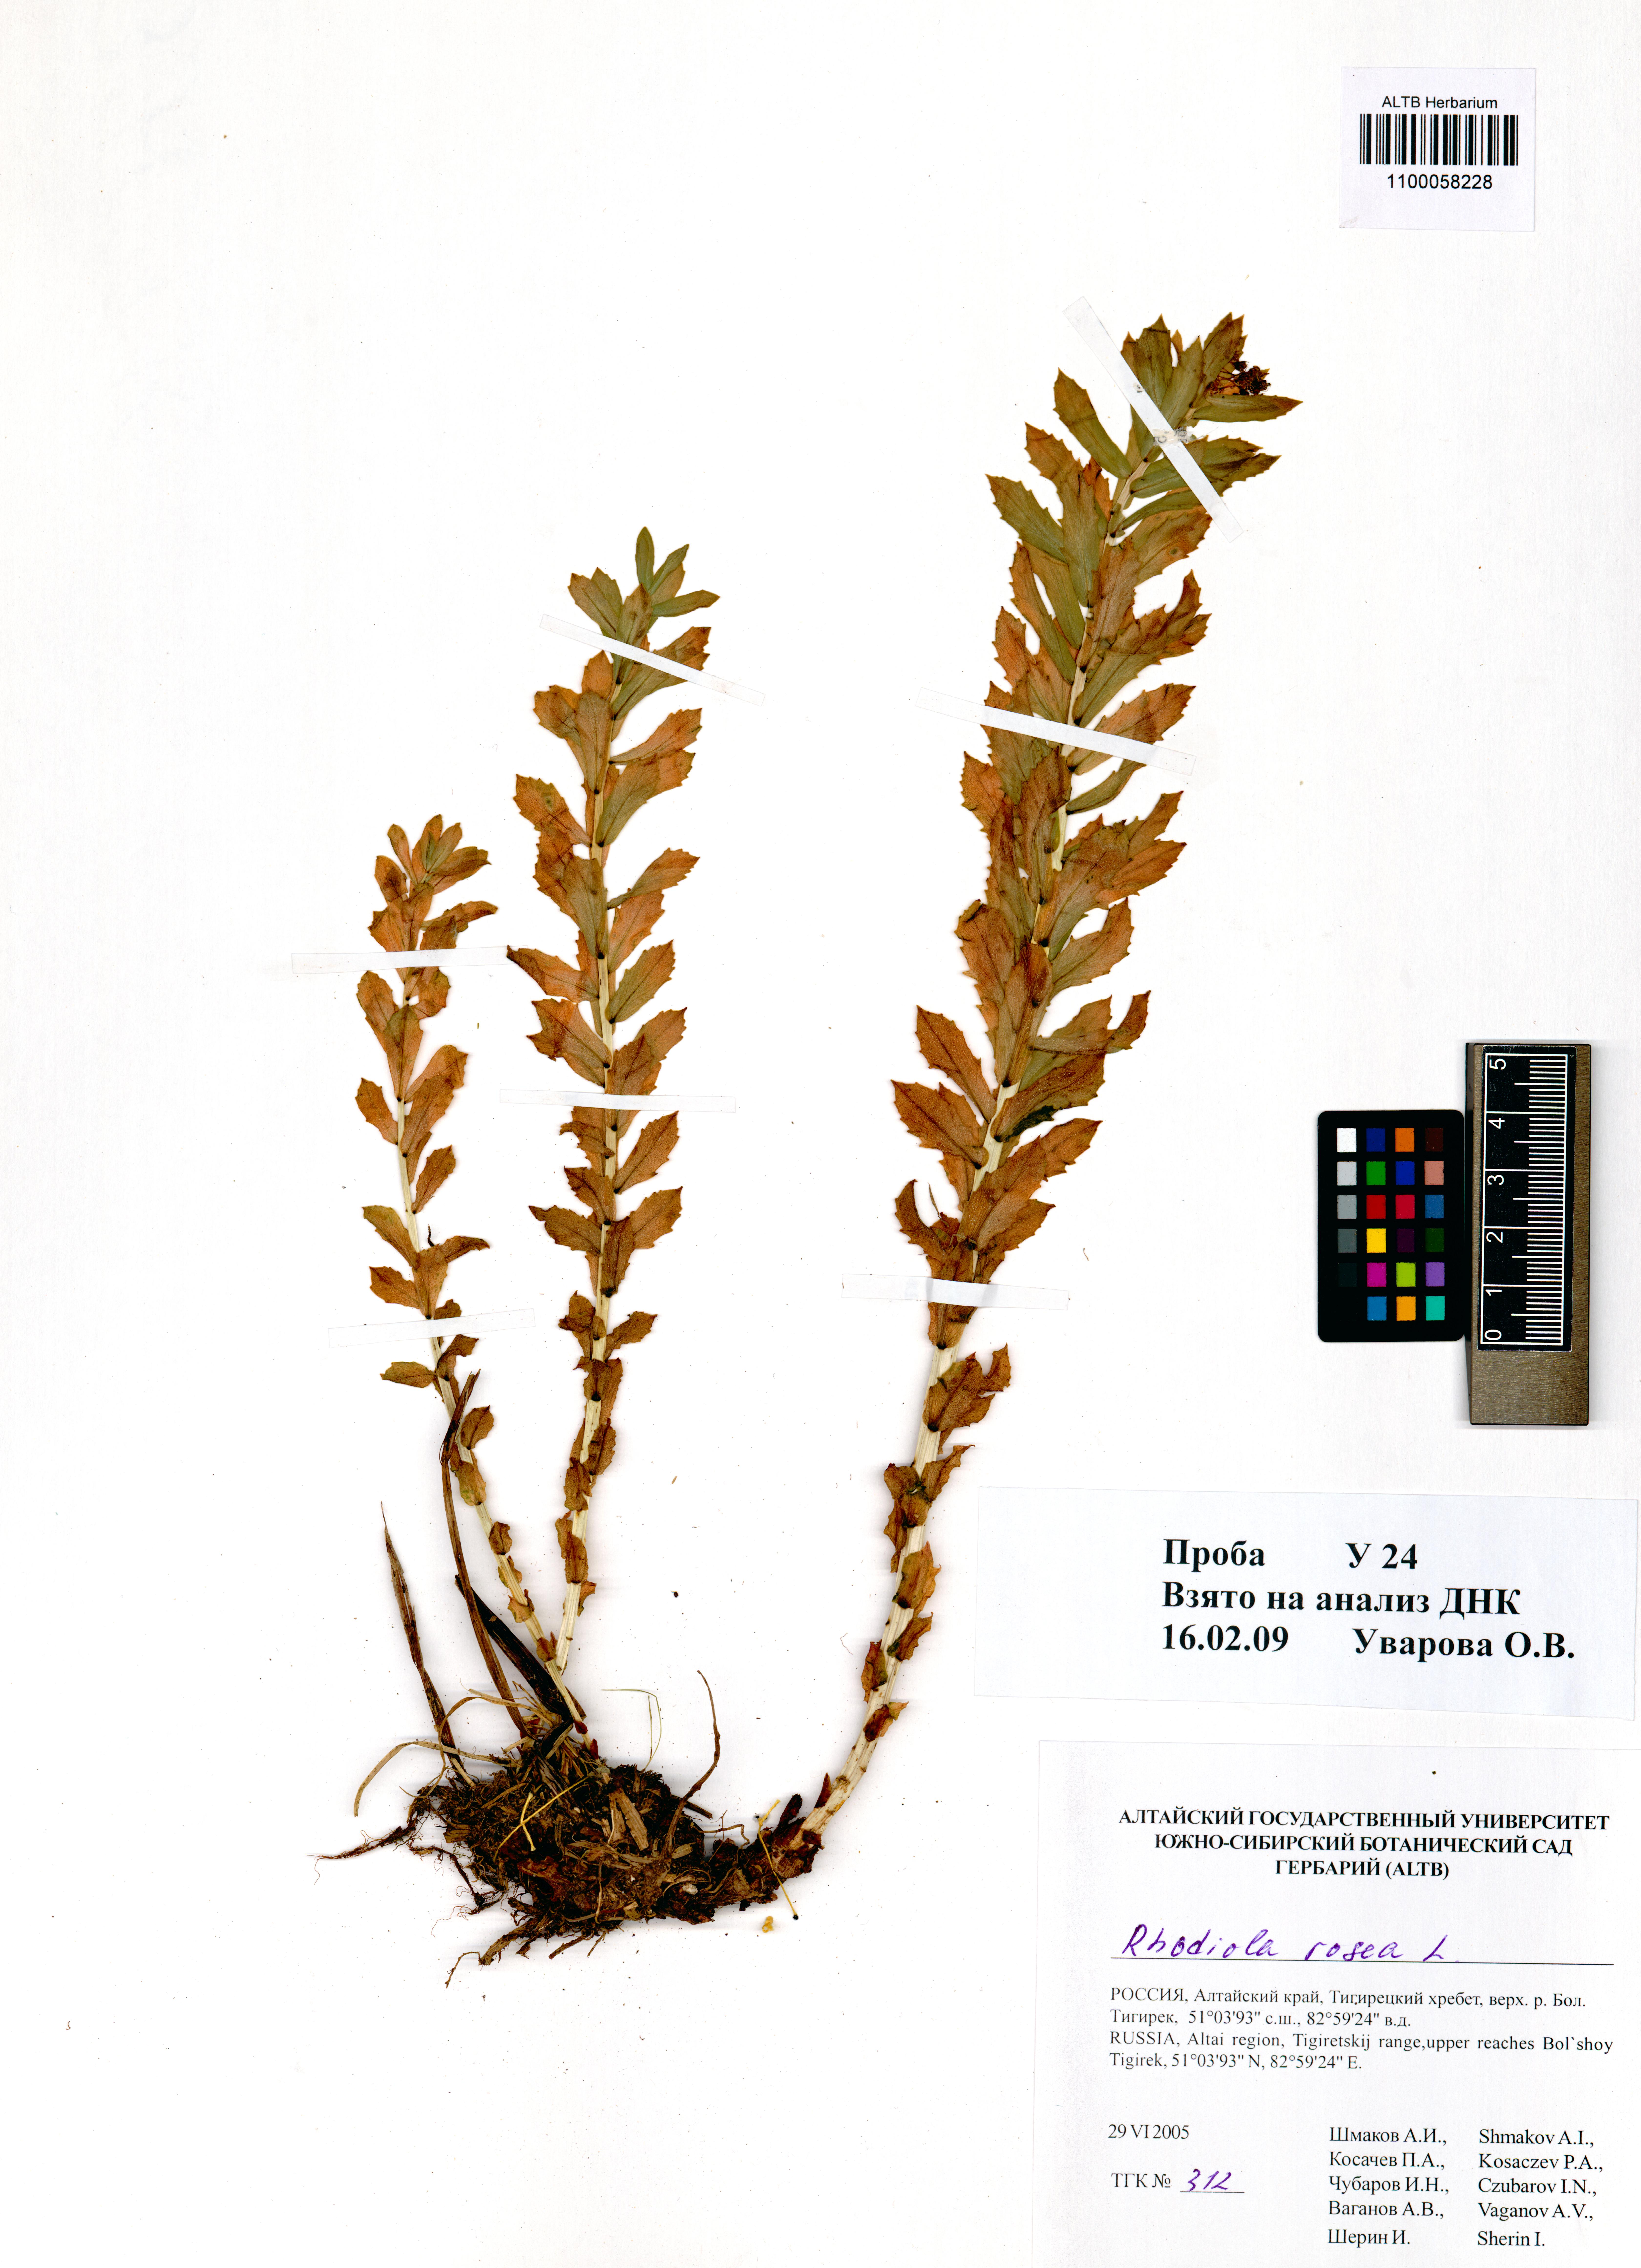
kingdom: Plantae
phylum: Tracheophyta
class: Magnoliopsida
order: Saxifragales
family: Crassulaceae
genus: Rhodiola
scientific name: Rhodiola rosea
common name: Roseroot
